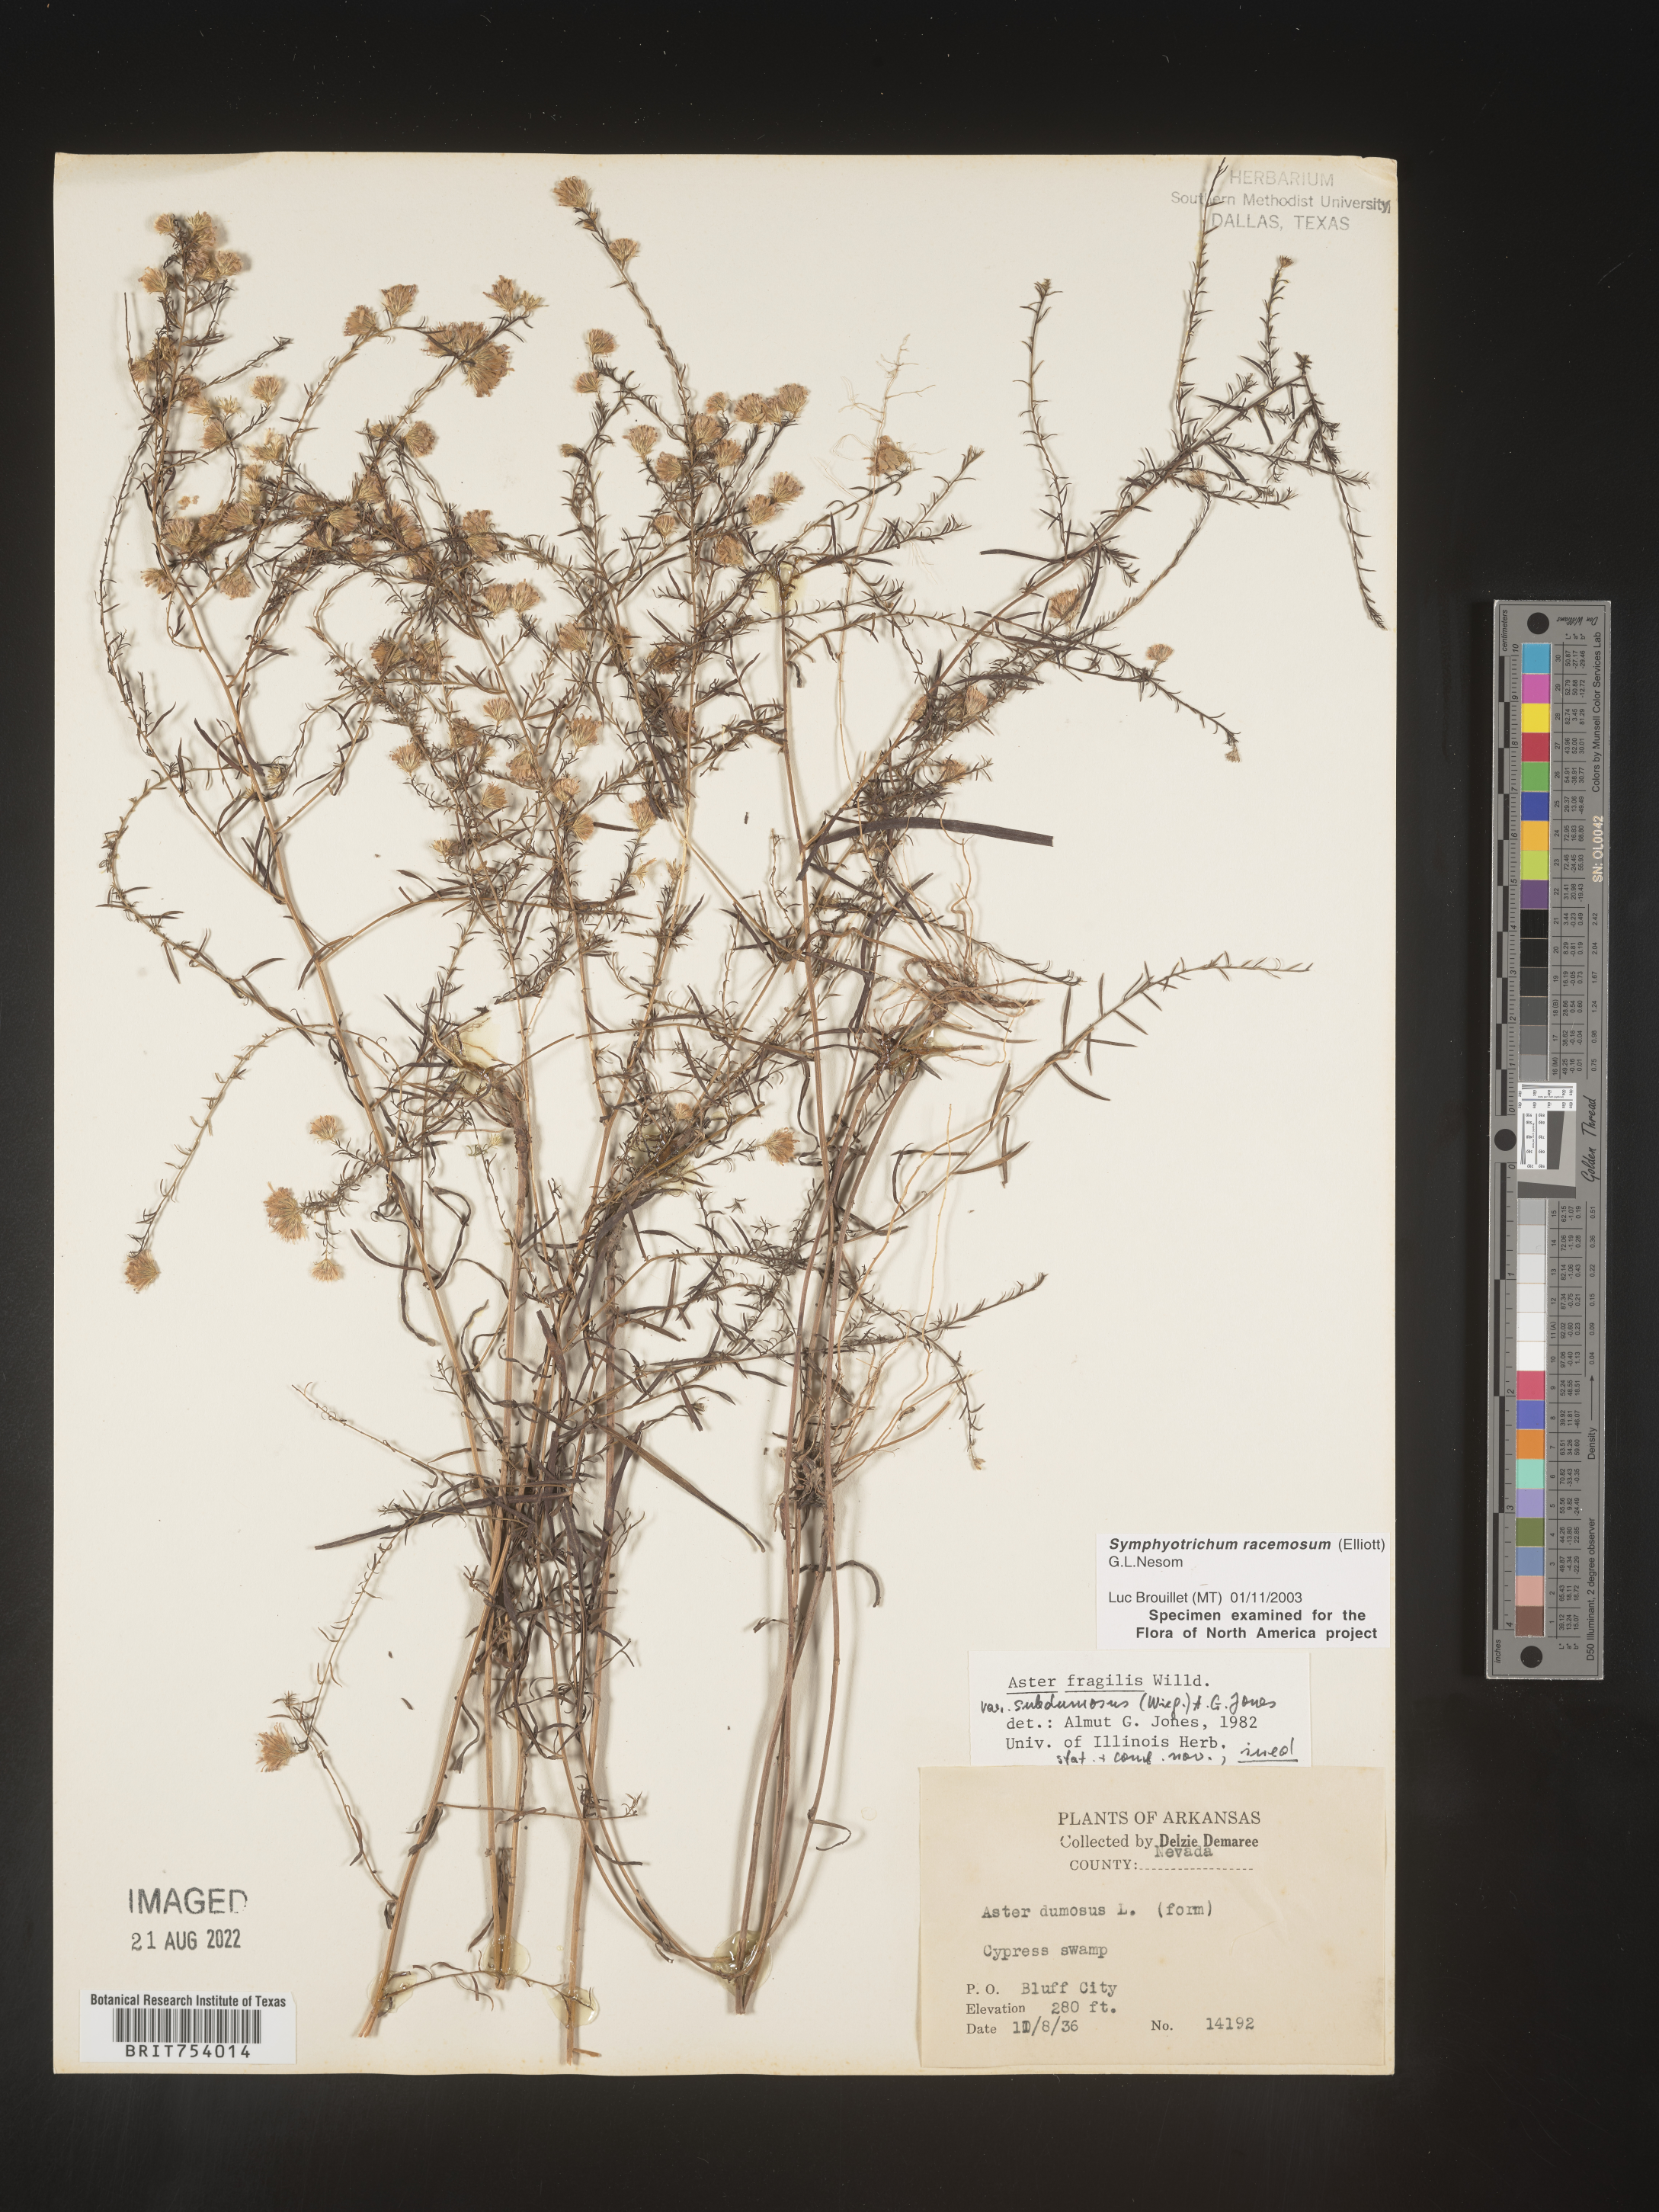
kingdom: Plantae
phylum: Tracheophyta
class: Magnoliopsida
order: Asterales
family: Asteraceae
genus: Symphyotrichum
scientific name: Symphyotrichum racemosum
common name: Small white aster
